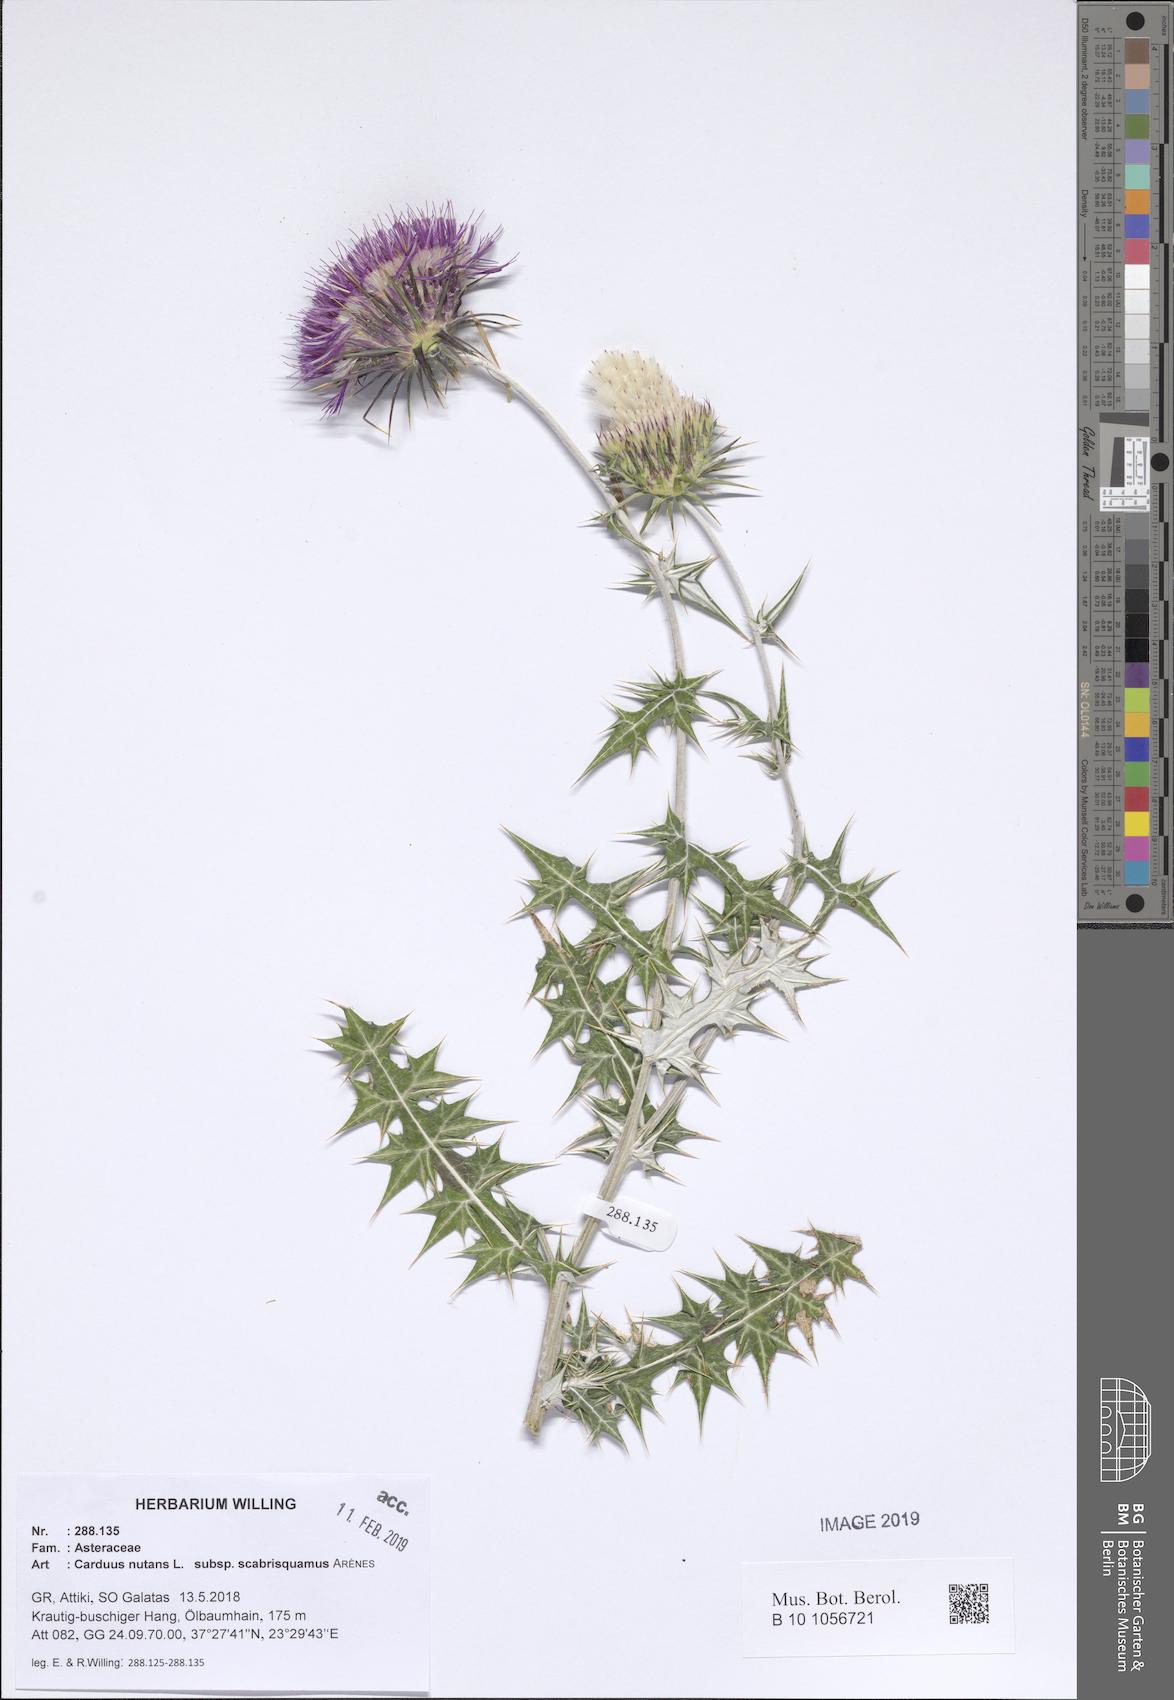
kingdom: Plantae
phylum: Tracheophyta
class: Magnoliopsida
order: Asterales
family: Asteraceae
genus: Carduus
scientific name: Carduus macrocephalus
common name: Giant thistle
